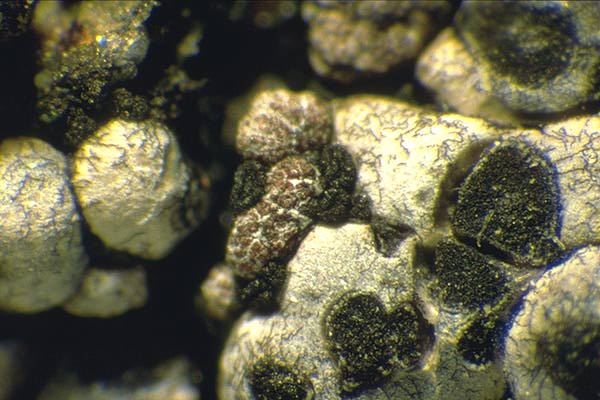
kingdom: Fungi
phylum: Ascomycota
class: Dothideomycetes
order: Pleosporales
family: Didymellaceae
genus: Leptosphaerulina
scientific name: Leptosphaerulina coccispora
